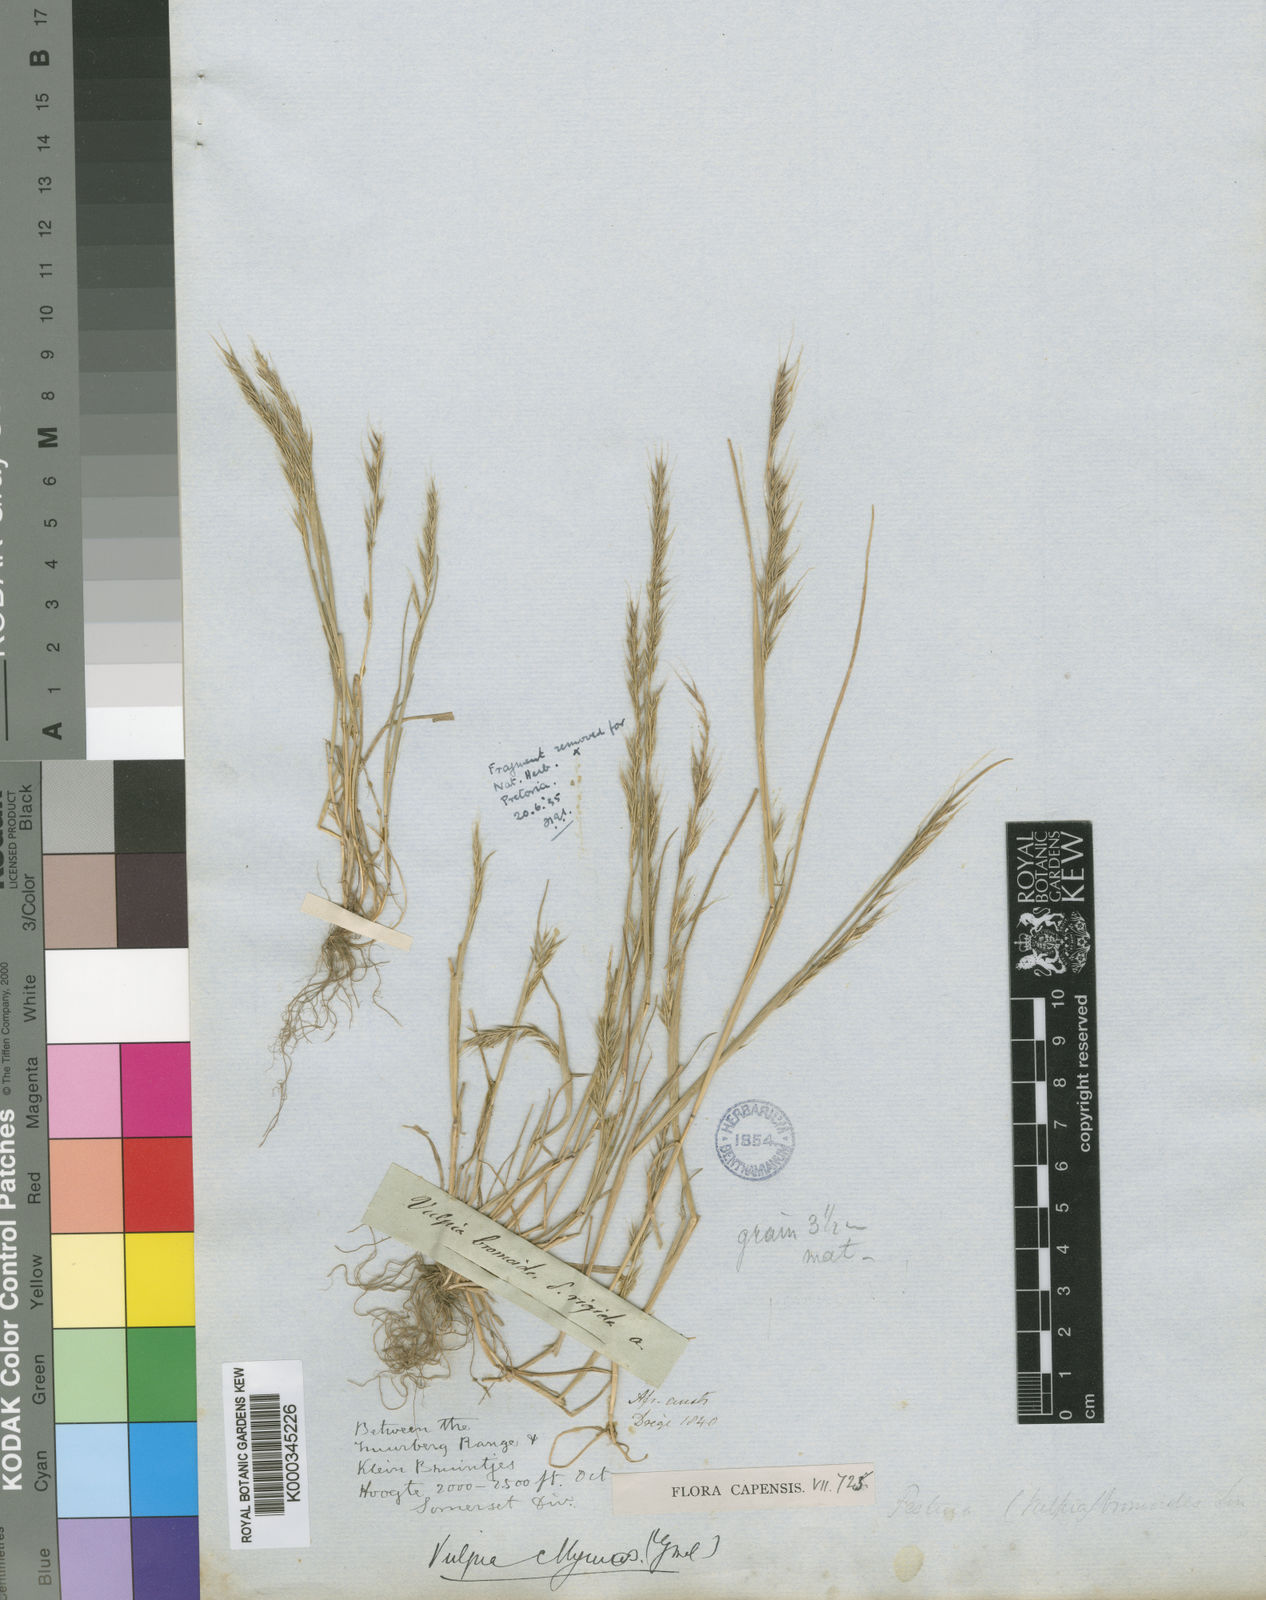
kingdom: Plantae
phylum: Tracheophyta
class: Liliopsida
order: Poales
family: Poaceae
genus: Festuca
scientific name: Festuca myuros
